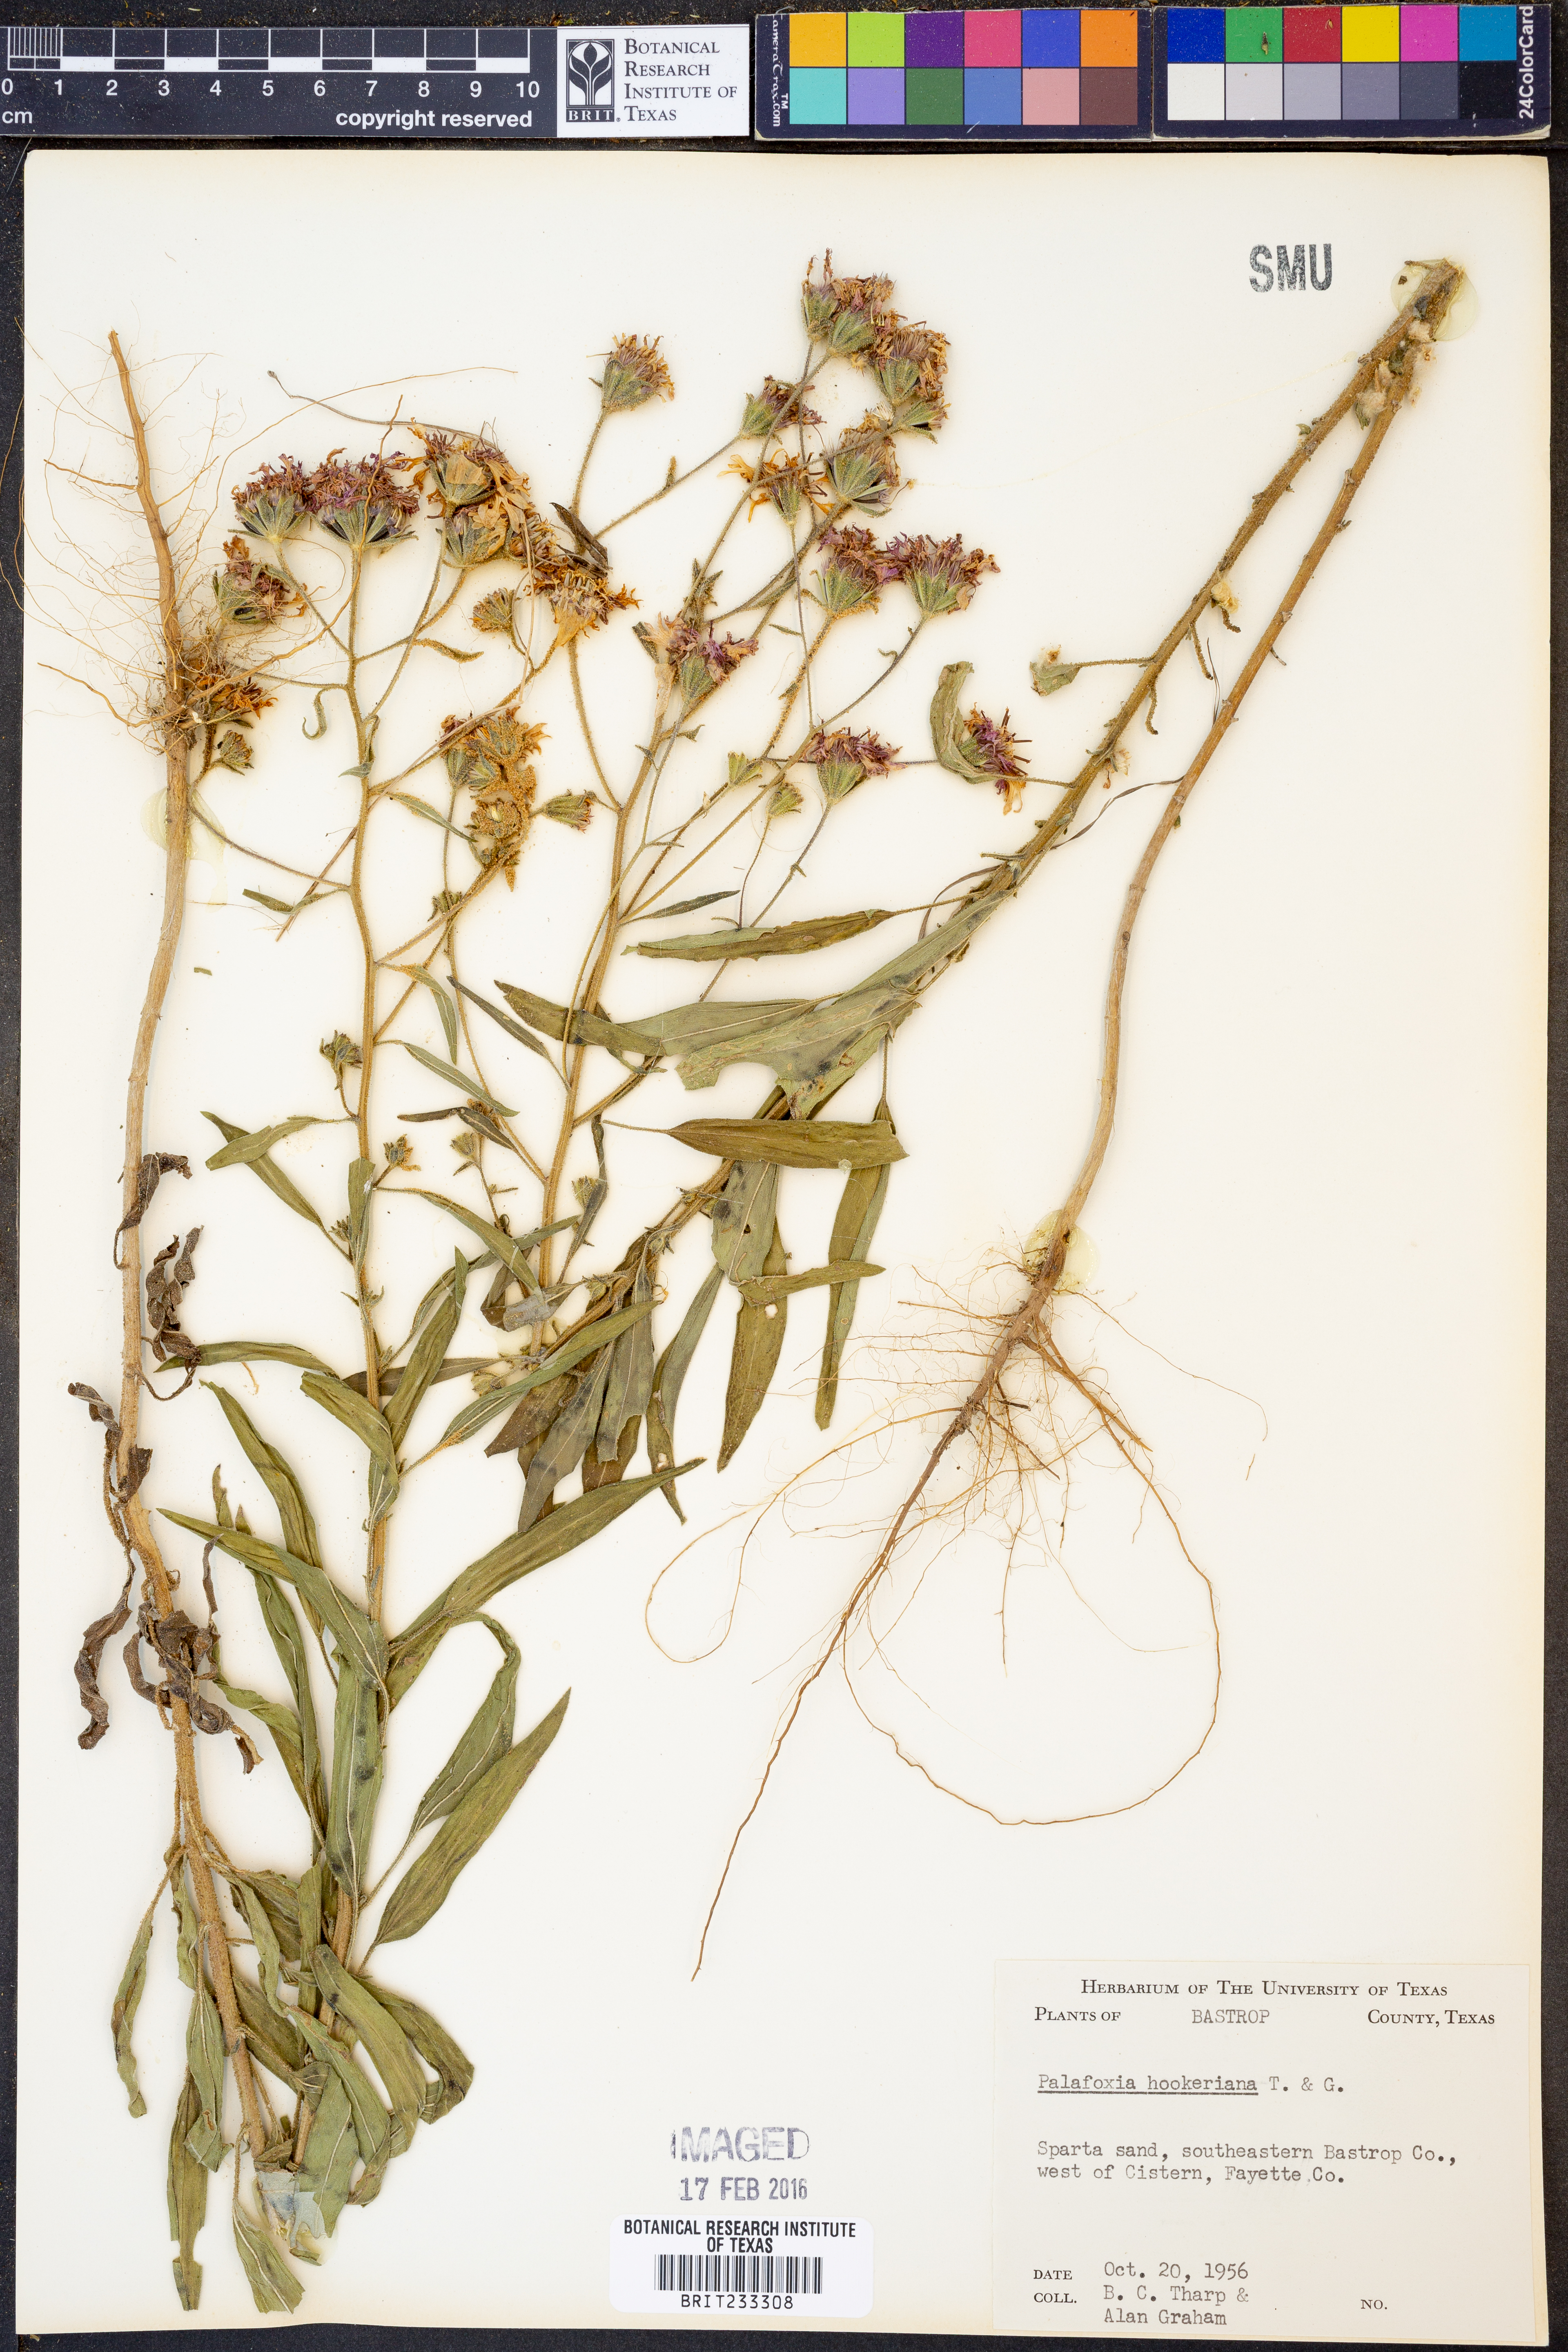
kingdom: Plantae
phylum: Tracheophyta
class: Magnoliopsida
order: Asterales
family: Asteraceae
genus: Palafoxia
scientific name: Palafoxia hookeriana
